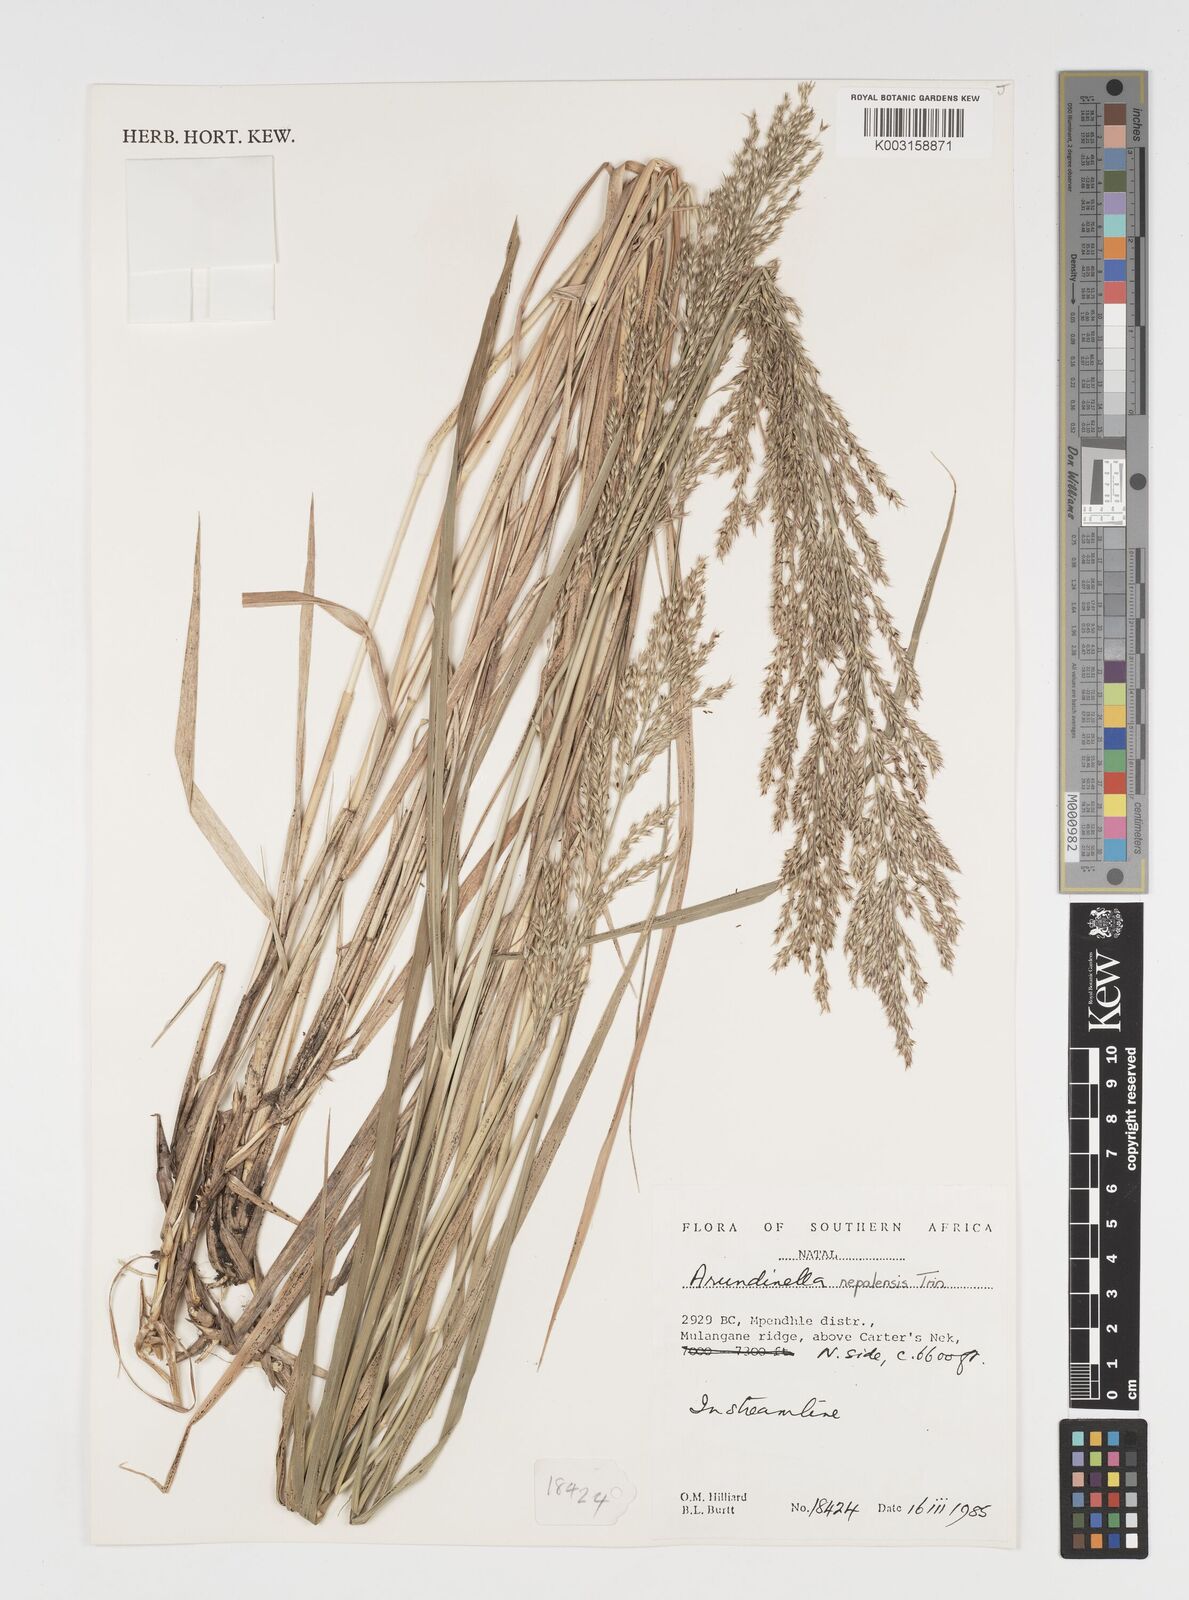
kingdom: Plantae
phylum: Tracheophyta
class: Liliopsida
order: Poales
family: Poaceae
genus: Arundinella
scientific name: Arundinella nepalensis
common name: Reed grass
